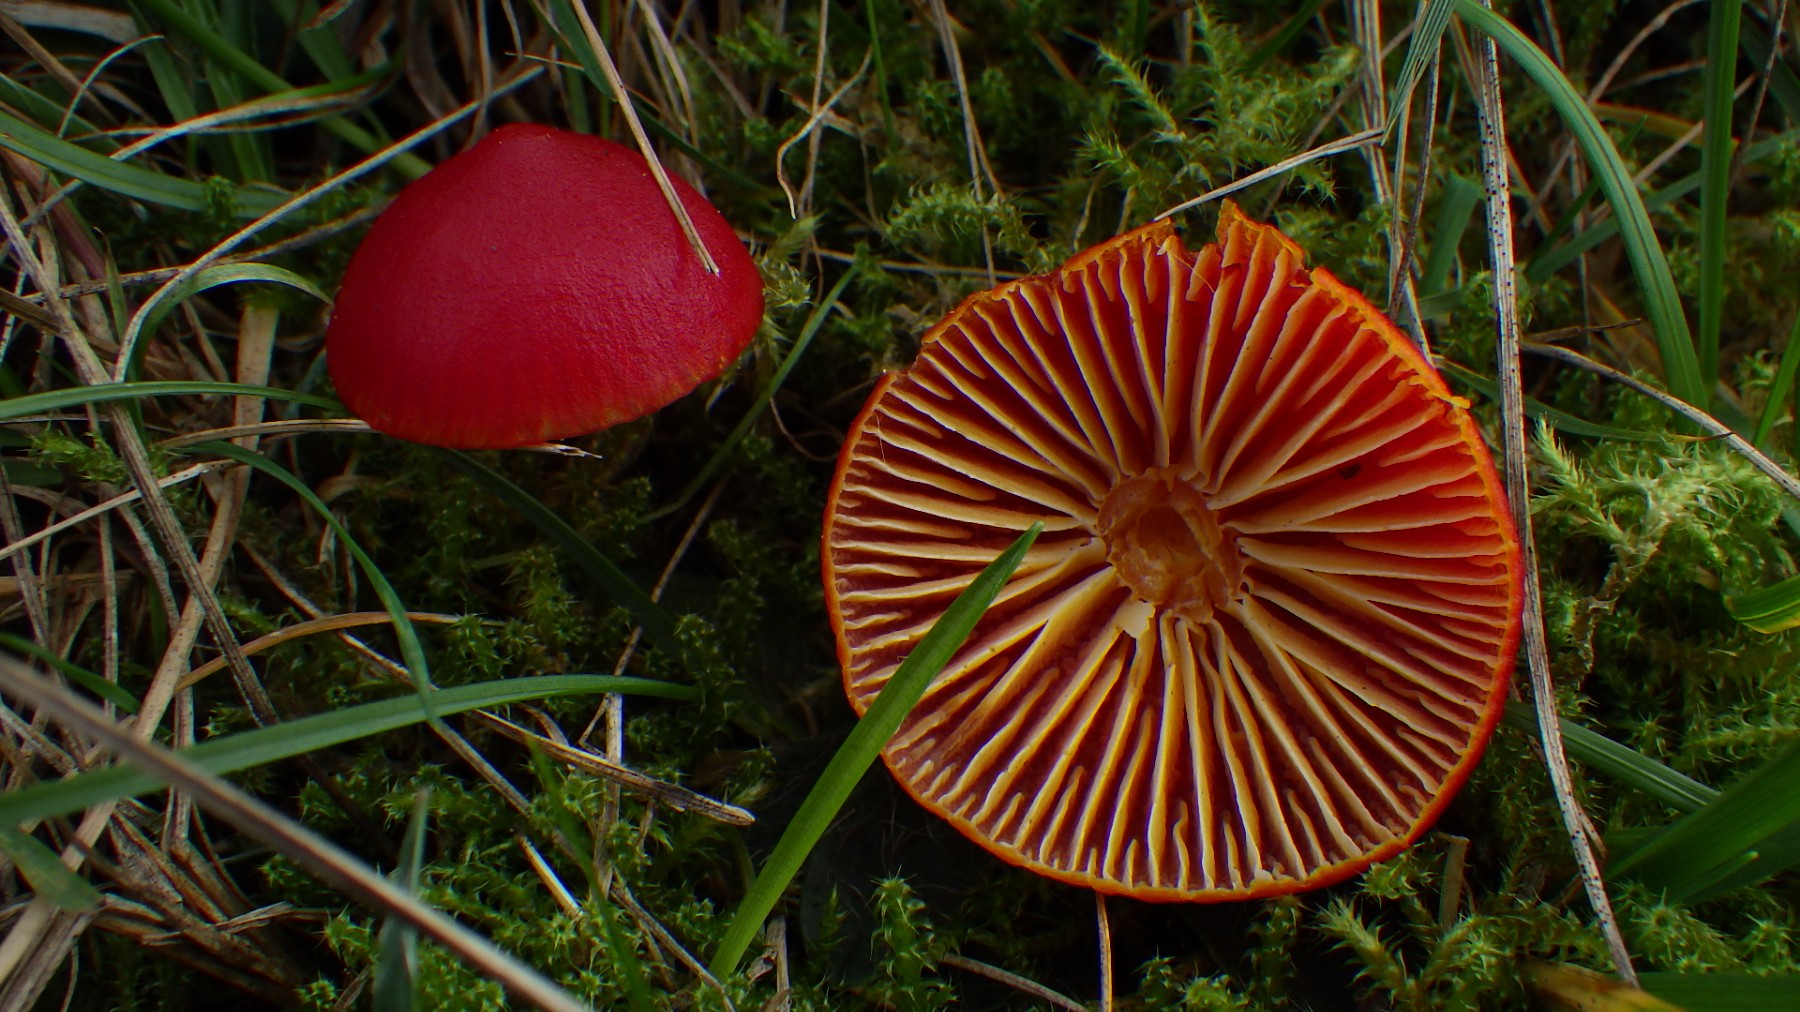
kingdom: Fungi
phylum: Basidiomycota
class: Agaricomycetes
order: Agaricales
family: Hygrophoraceae
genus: Hygrocybe
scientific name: Hygrocybe coccinea
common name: cinnober-vokshat
